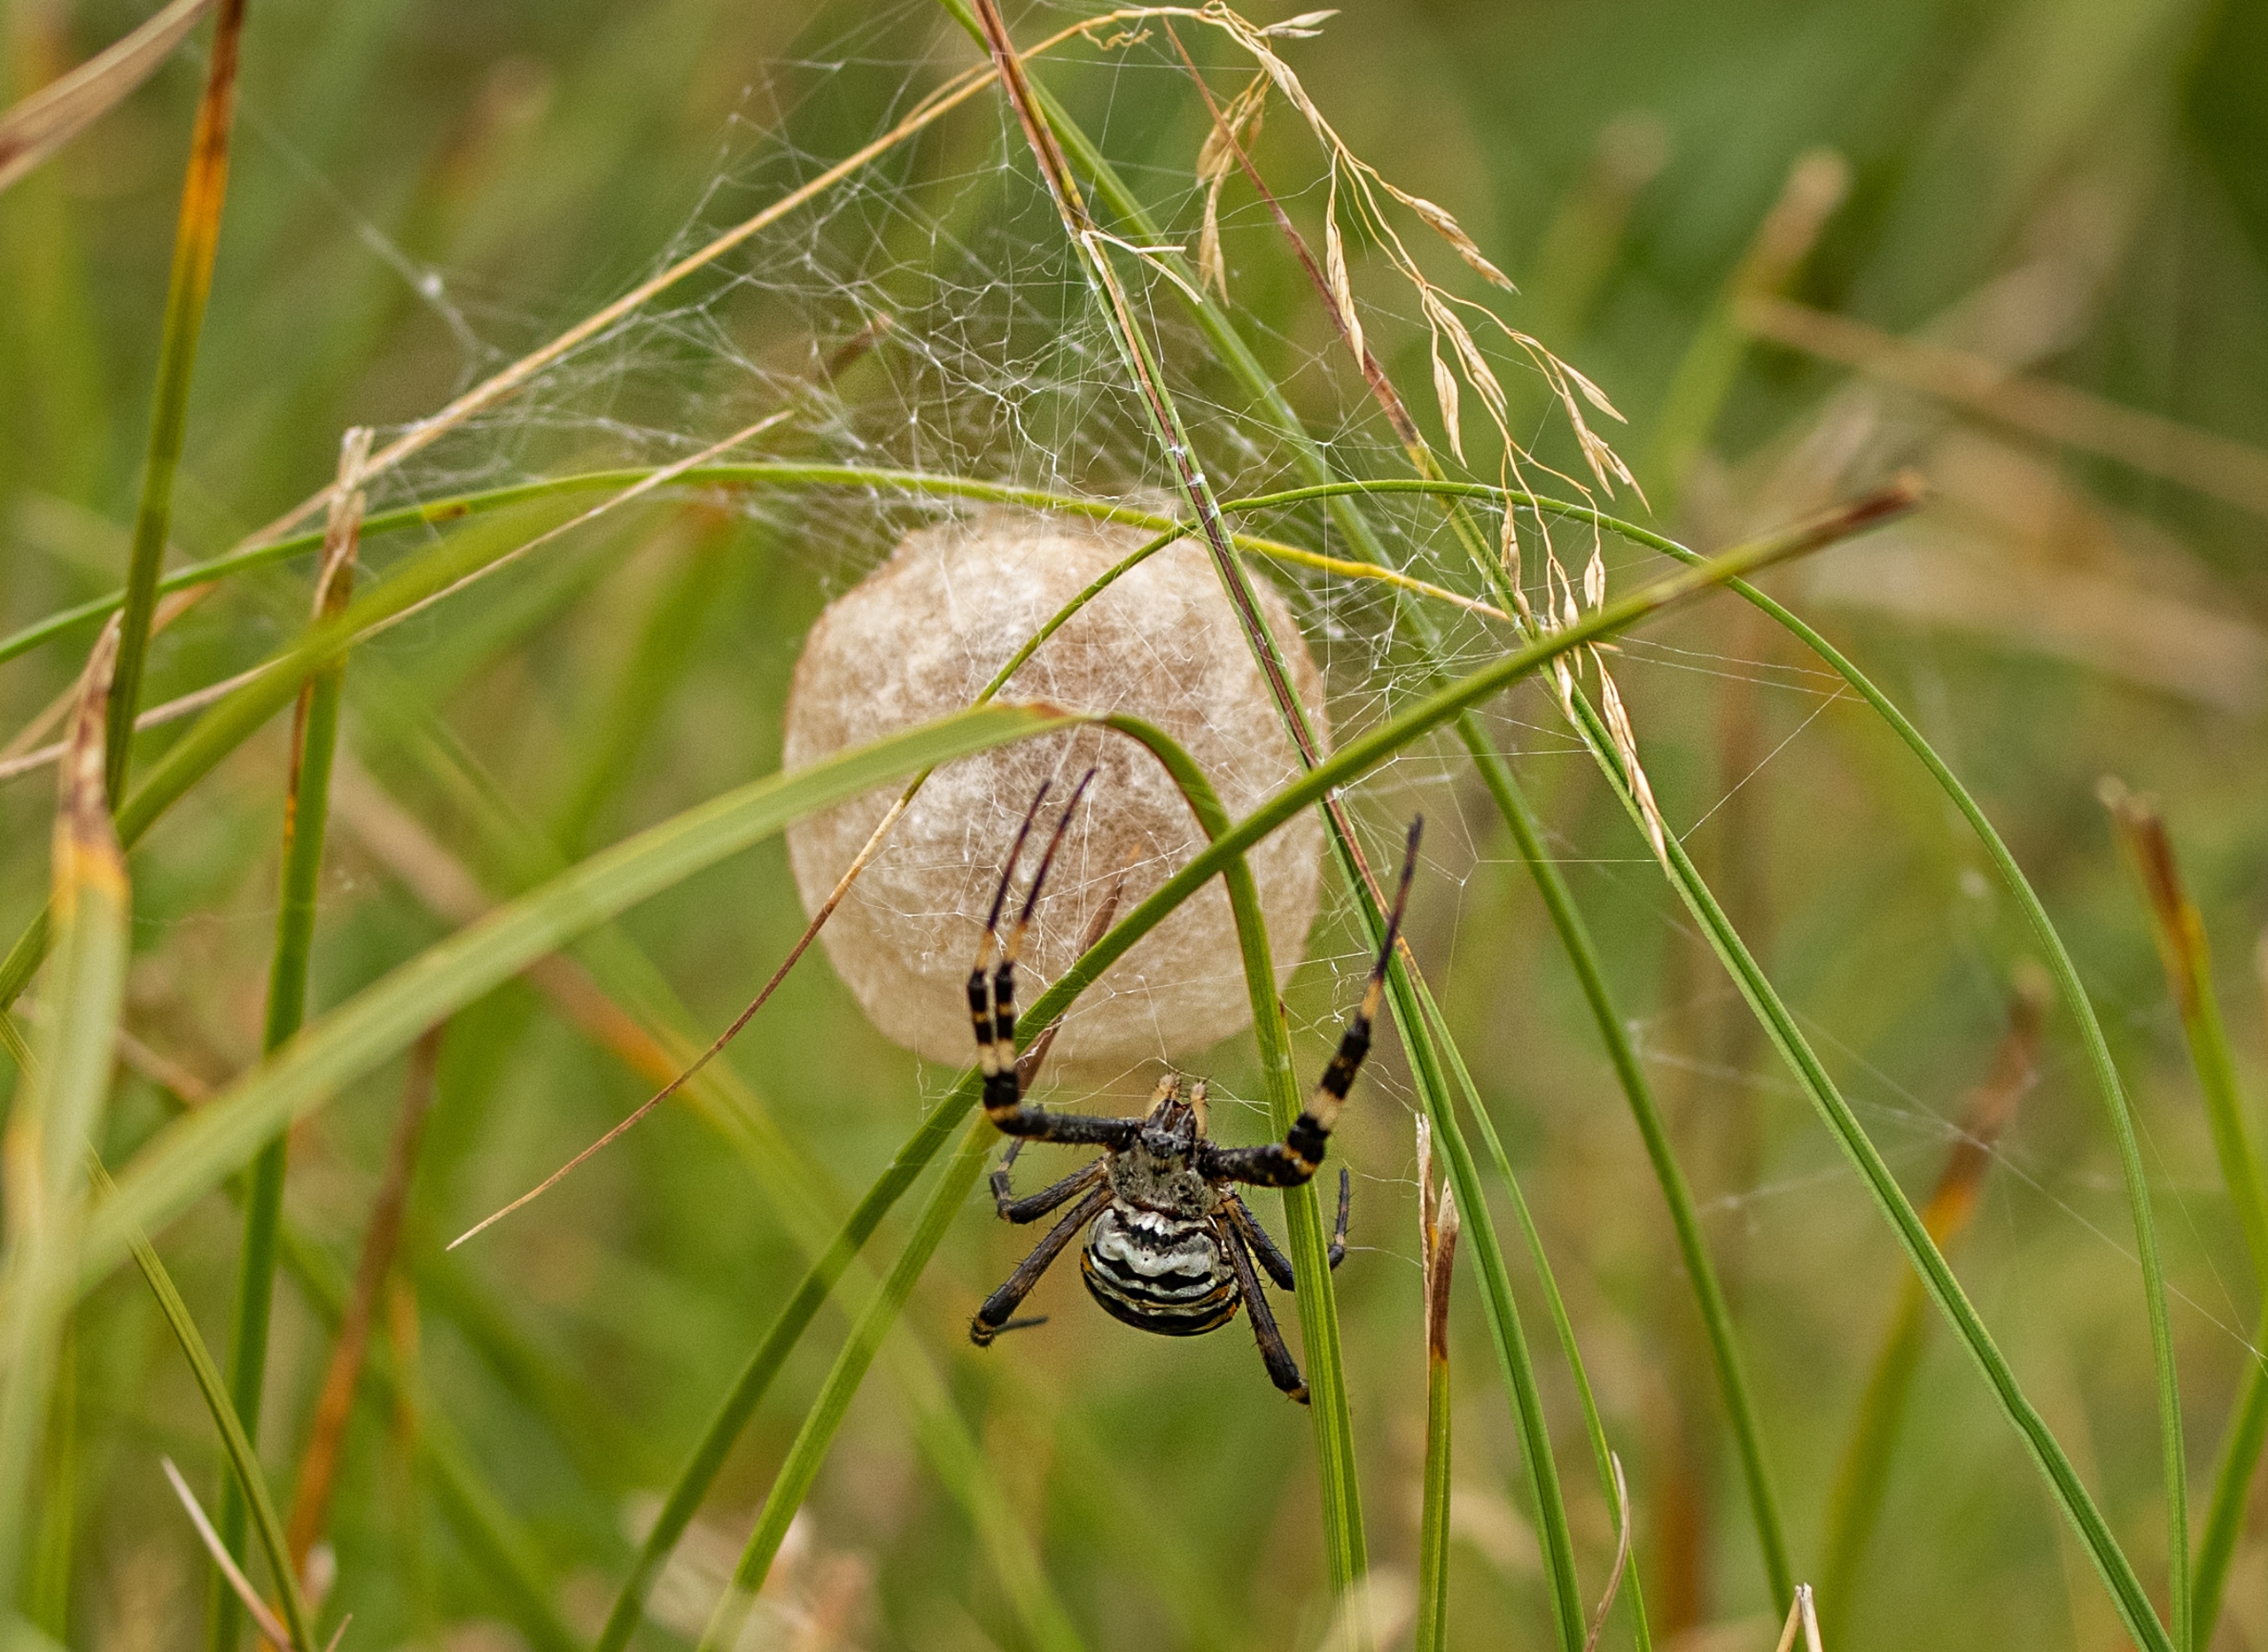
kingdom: Animalia
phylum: Arthropoda
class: Arachnida
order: Araneae
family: Araneidae
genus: Argiope
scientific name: Argiope bruennichi
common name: Hvepseedderkop
